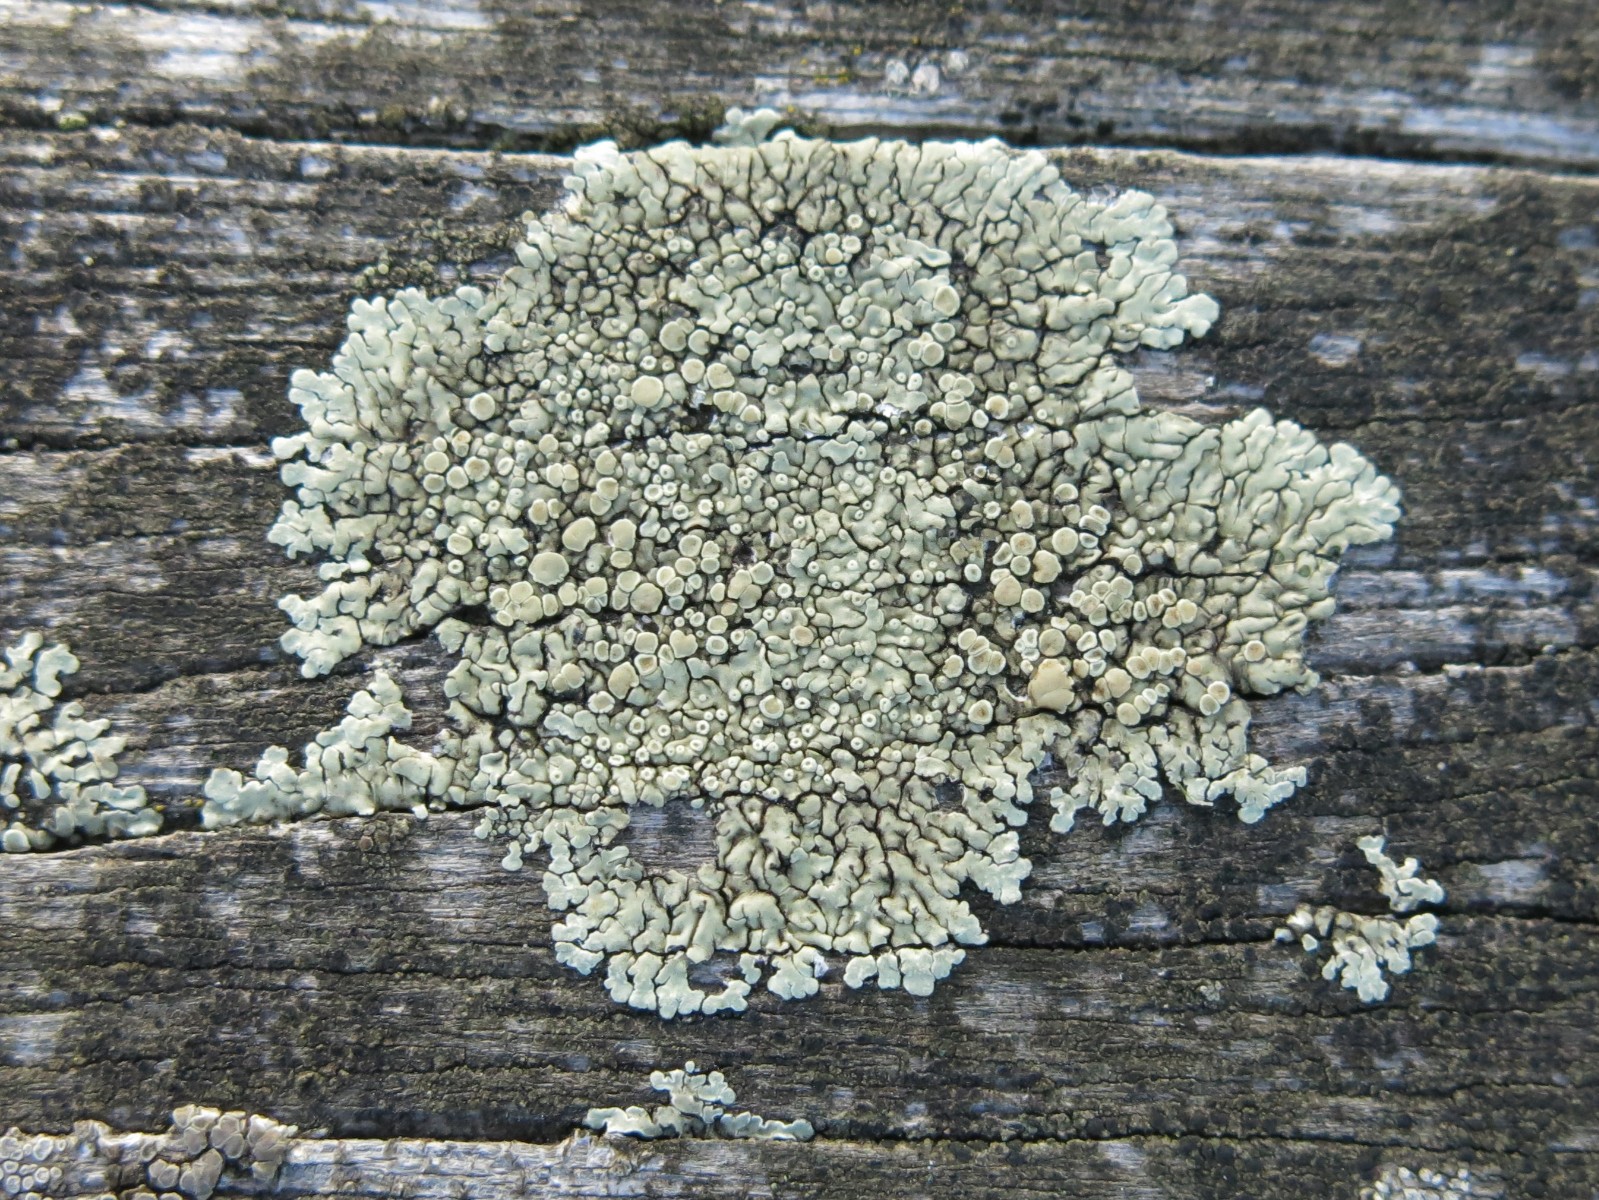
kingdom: Fungi
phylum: Ascomycota
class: Lecanoromycetes
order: Lecanorales
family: Lecanoraceae
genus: Protoparmeliopsis
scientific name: Protoparmeliopsis muralis
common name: randfliget kantskivelav
